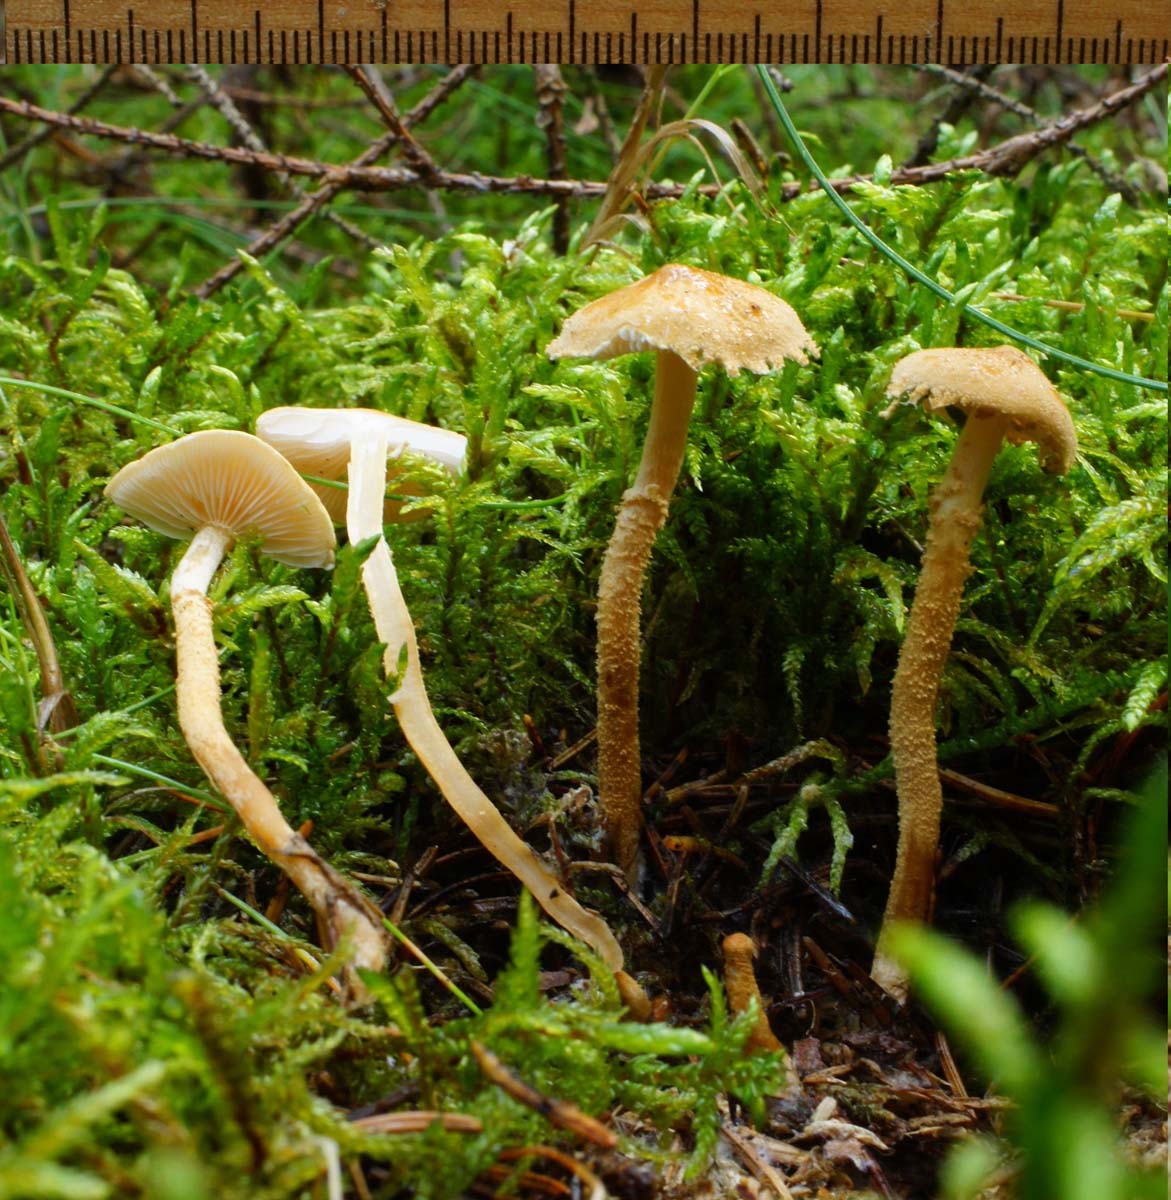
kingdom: Fungi
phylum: Basidiomycota
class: Agaricomycetes
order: Agaricales
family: Tricholomataceae
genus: Cystoderma
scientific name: Cystoderma amianthinum
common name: okkergul grynhat
